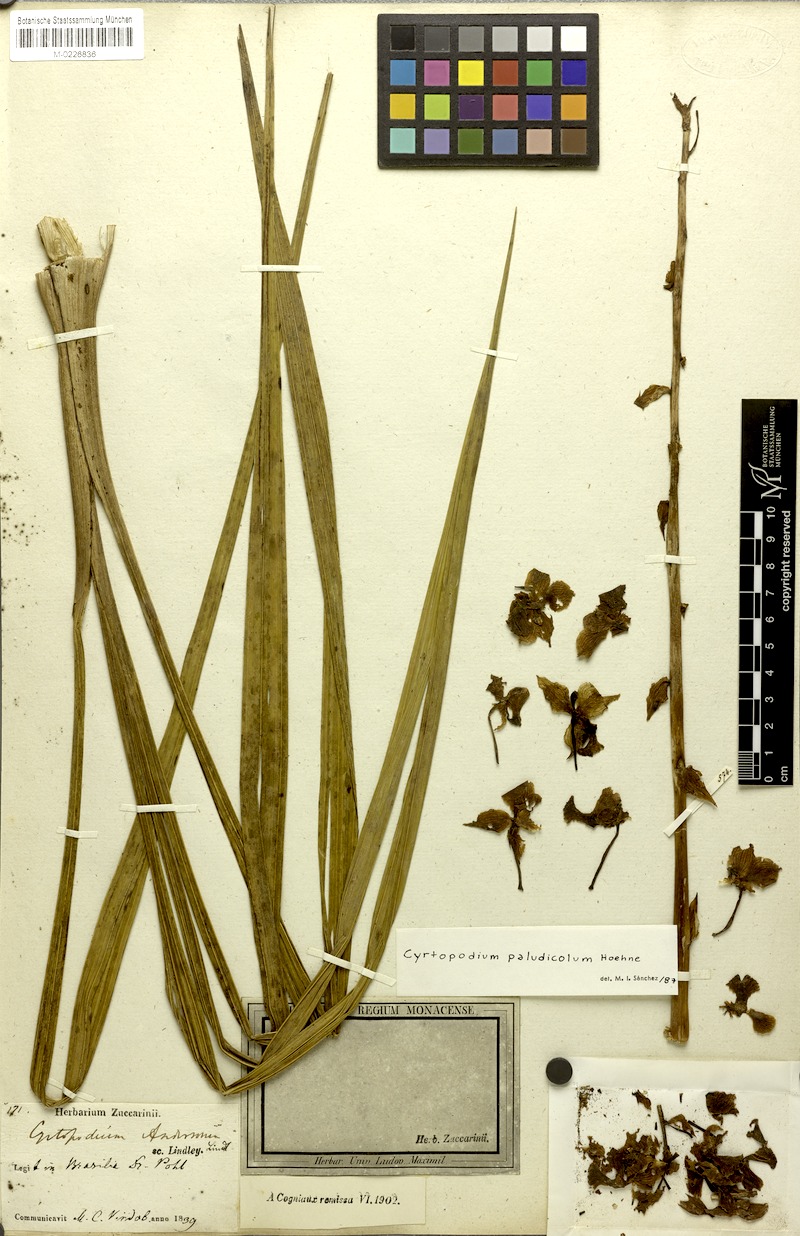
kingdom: Plantae
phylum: Tracheophyta
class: Liliopsida
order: Asparagales
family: Orchidaceae
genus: Cyrtopodium
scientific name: Cyrtopodium paludicola
